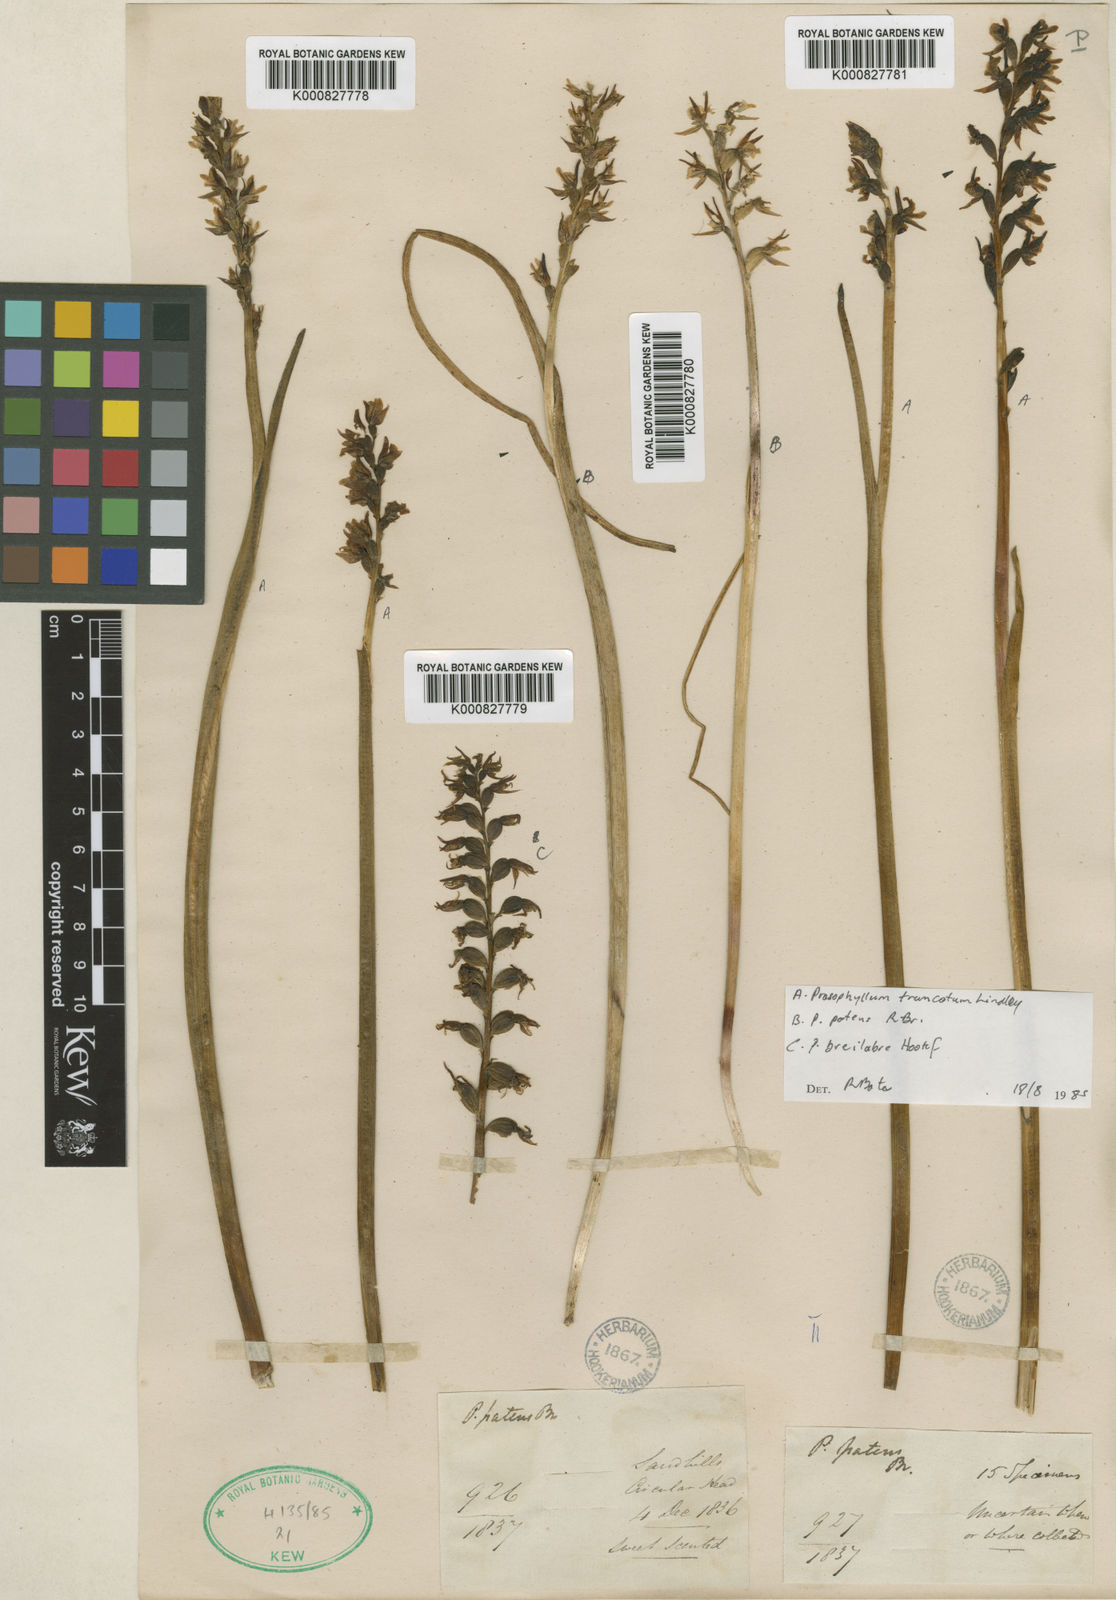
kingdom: Plantae
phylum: Tracheophyta
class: Liliopsida
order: Asparagales
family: Orchidaceae
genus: Prasophyllum
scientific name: Prasophyllum truncatum
